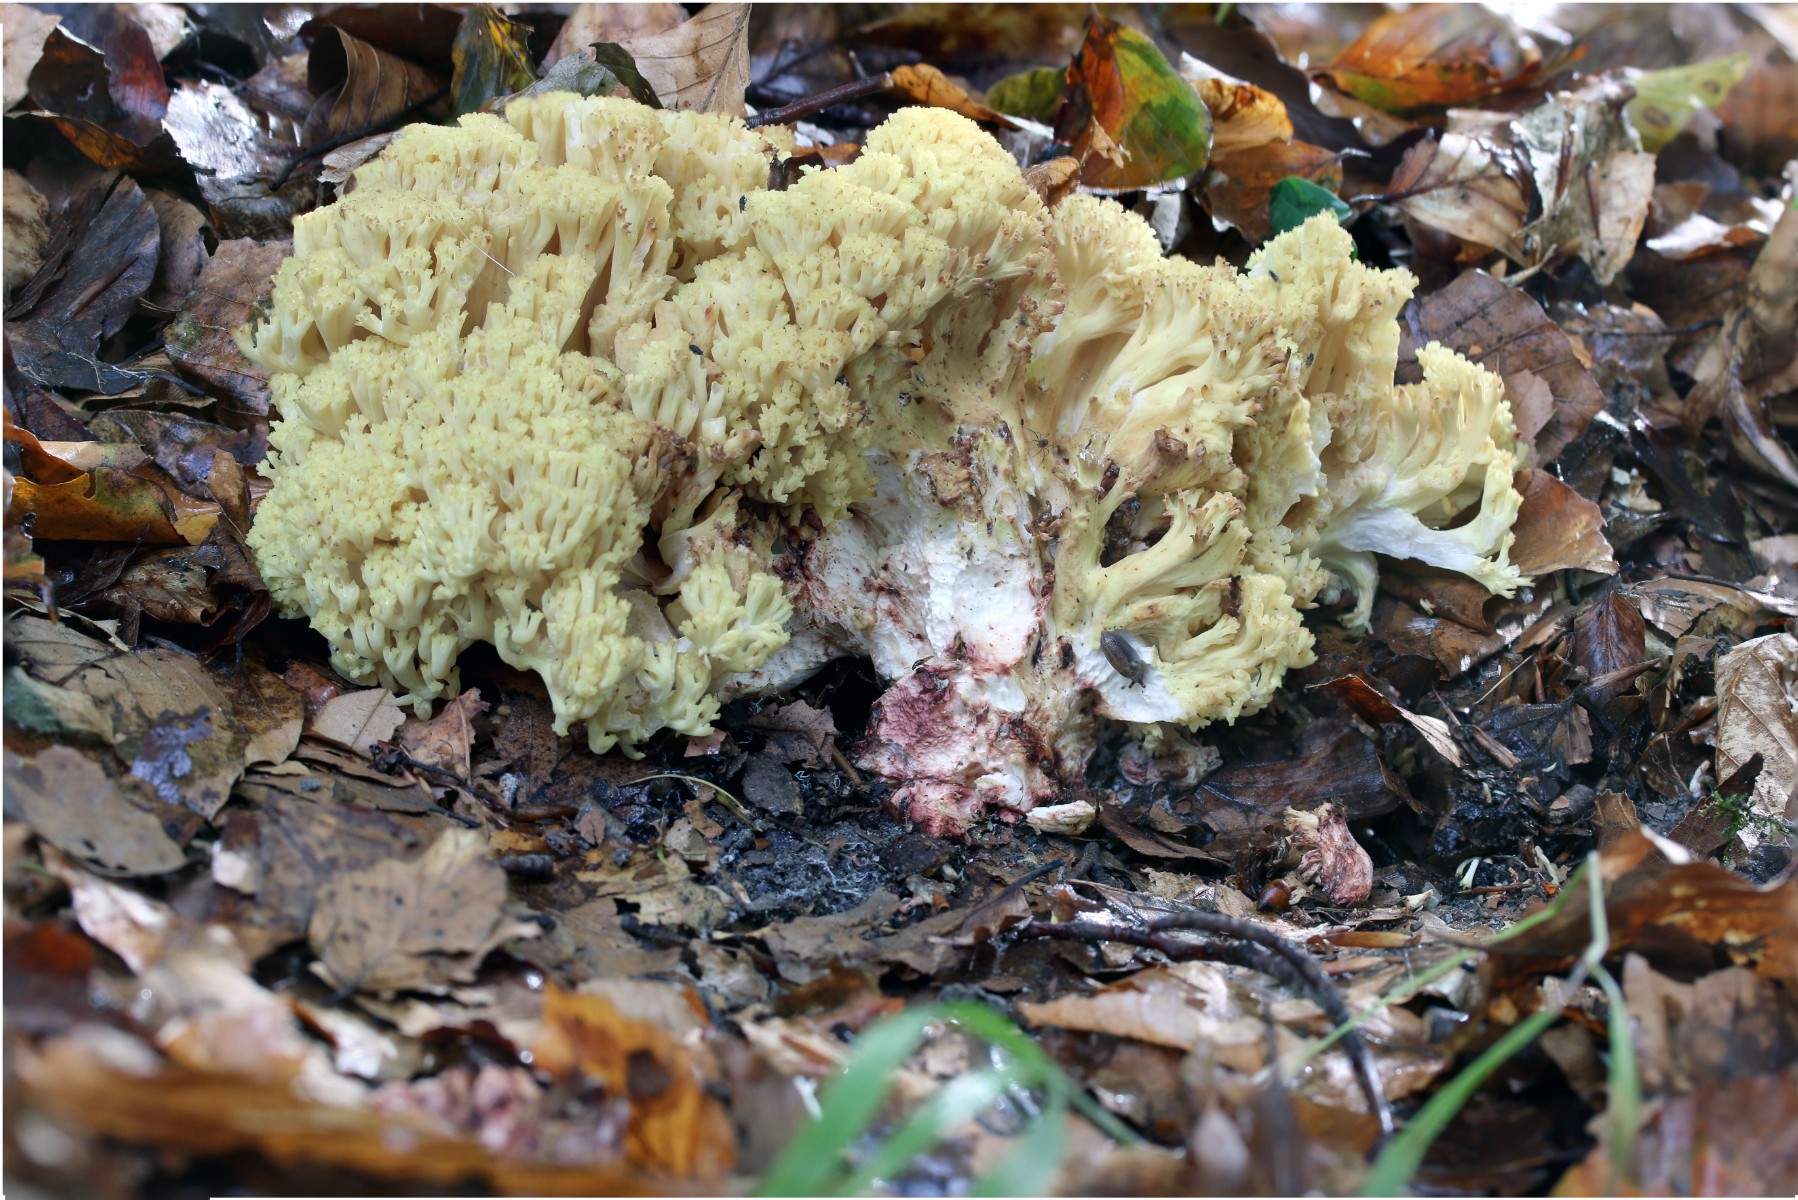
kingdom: Fungi
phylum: Basidiomycota
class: Agaricomycetes
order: Gomphales
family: Gomphaceae
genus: Ramaria
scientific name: Ramaria sanguinea
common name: blodplettet koralsvamp
